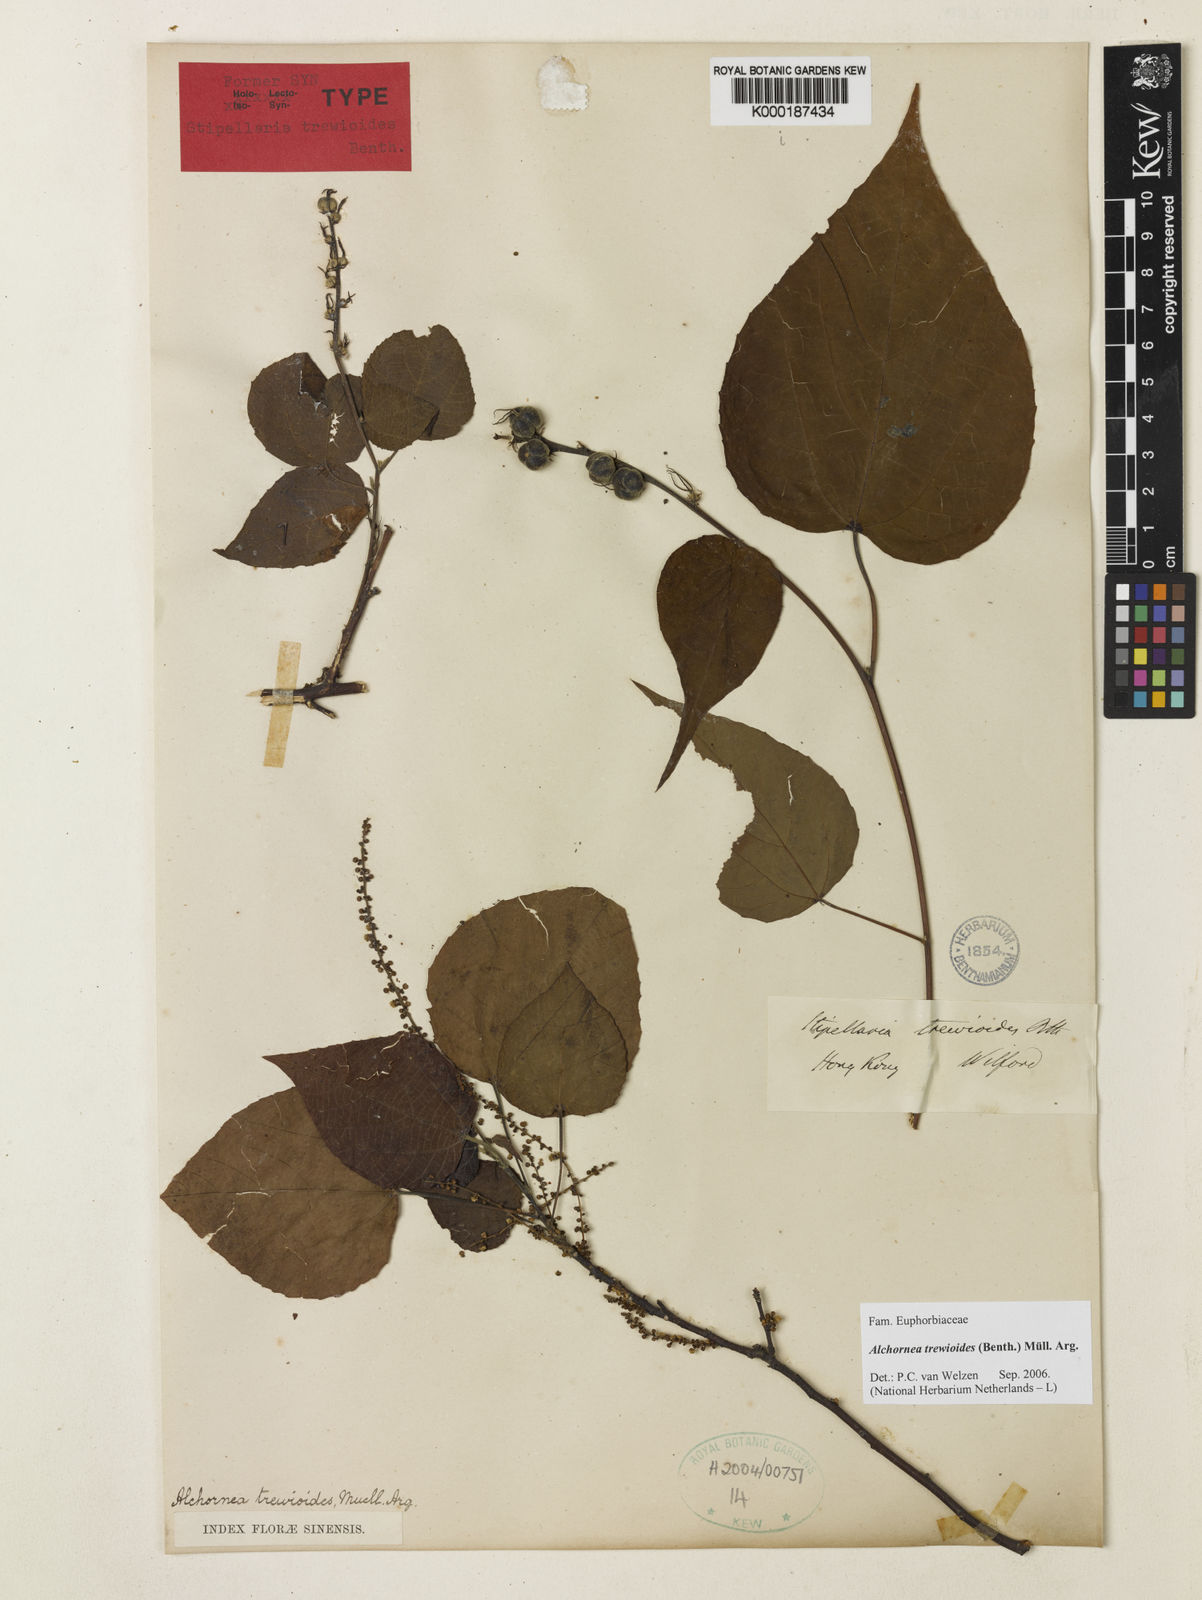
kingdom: Plantae
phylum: Tracheophyta
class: Magnoliopsida
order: Malpighiales
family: Euphorbiaceae
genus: Alchornea
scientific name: Alchornea
